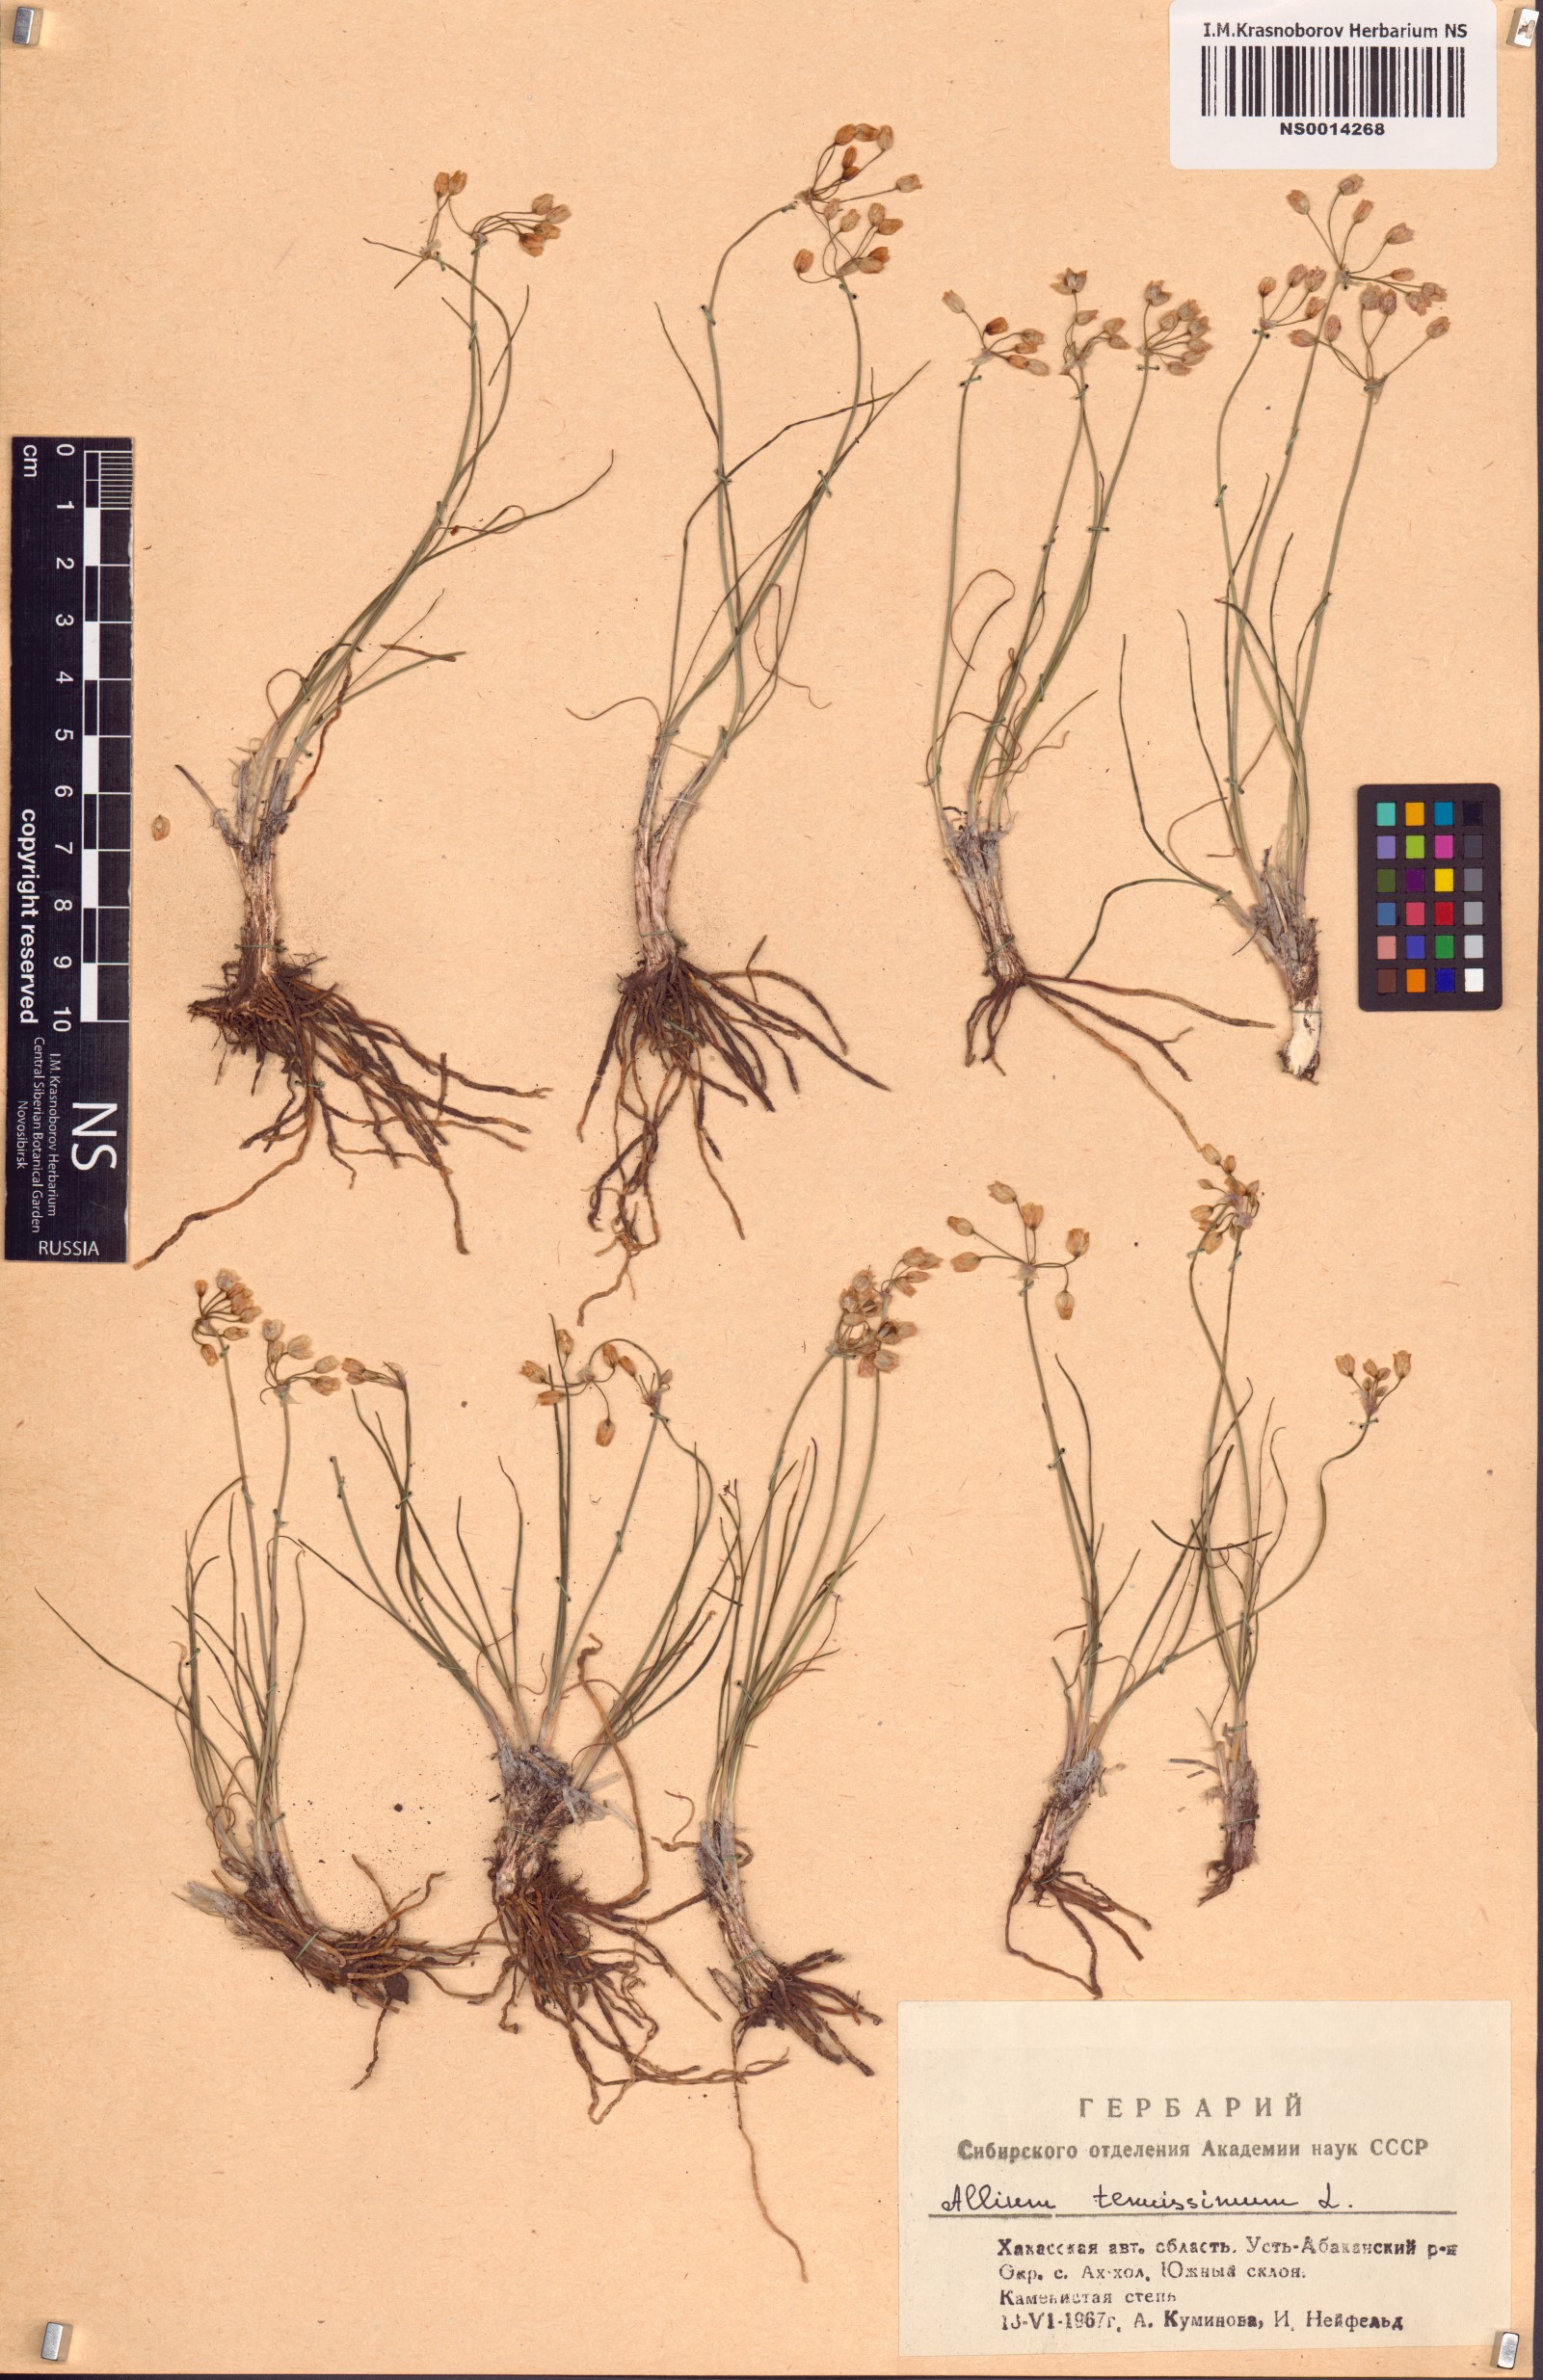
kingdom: Plantae
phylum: Tracheophyta
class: Liliopsida
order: Asparagales
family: Amaryllidaceae
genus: Allium
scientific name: Allium tenuissimum
